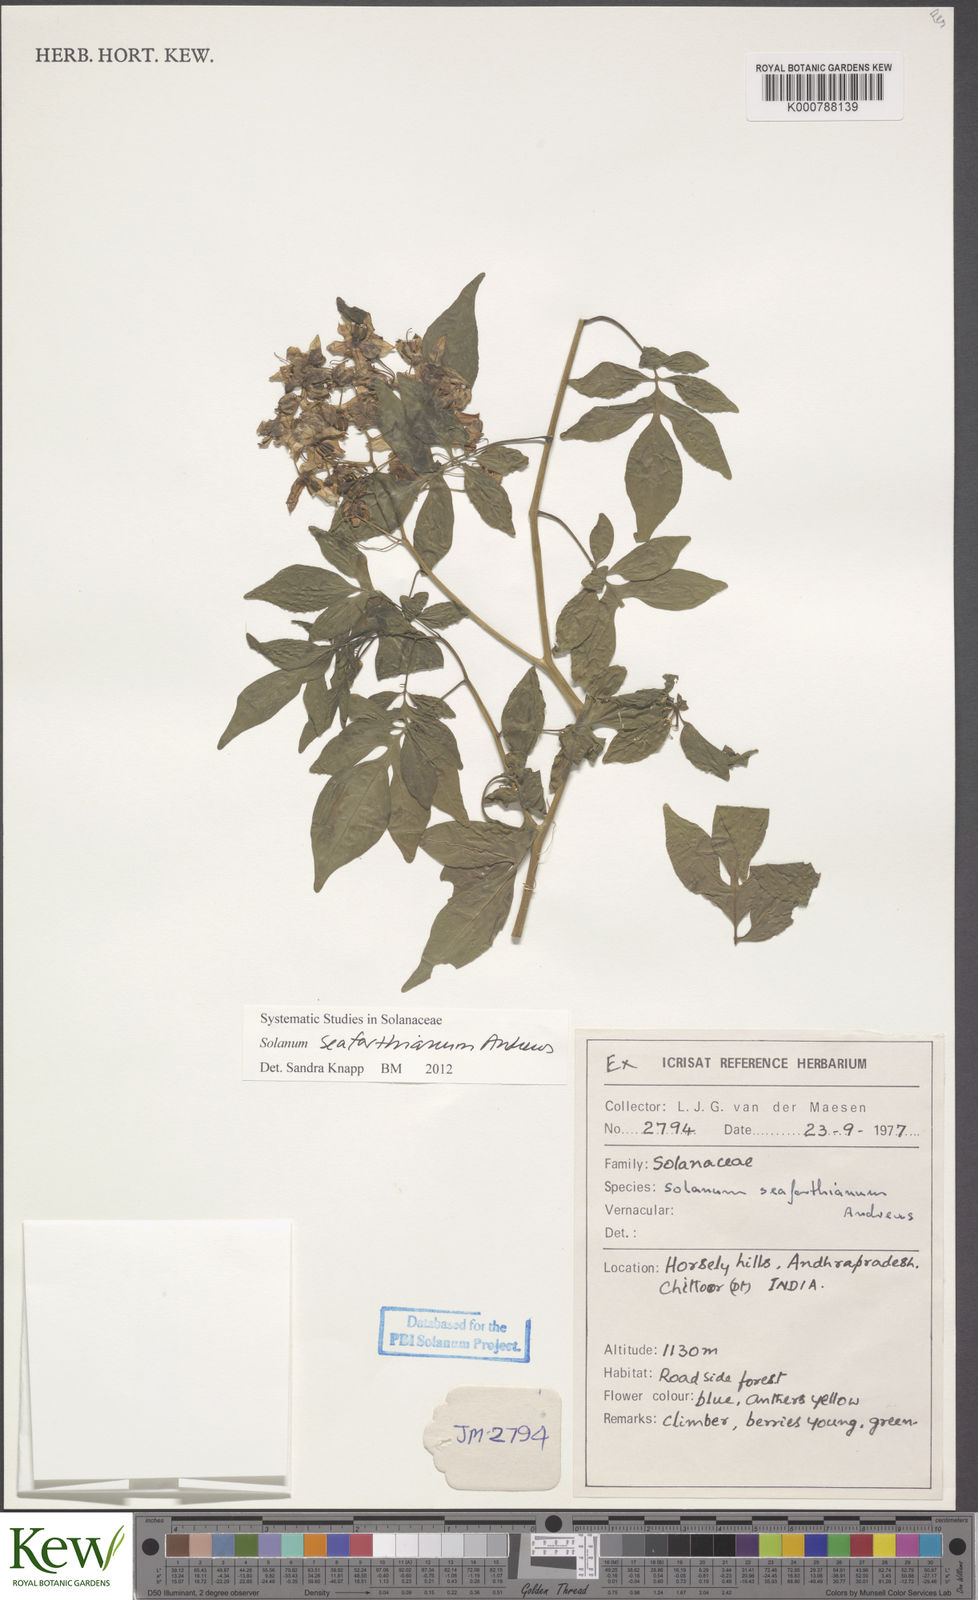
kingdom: Plantae
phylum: Tracheophyta
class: Magnoliopsida
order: Solanales
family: Solanaceae
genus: Solanum
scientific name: Solanum seaforthianum
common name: Brazilian nightshade
